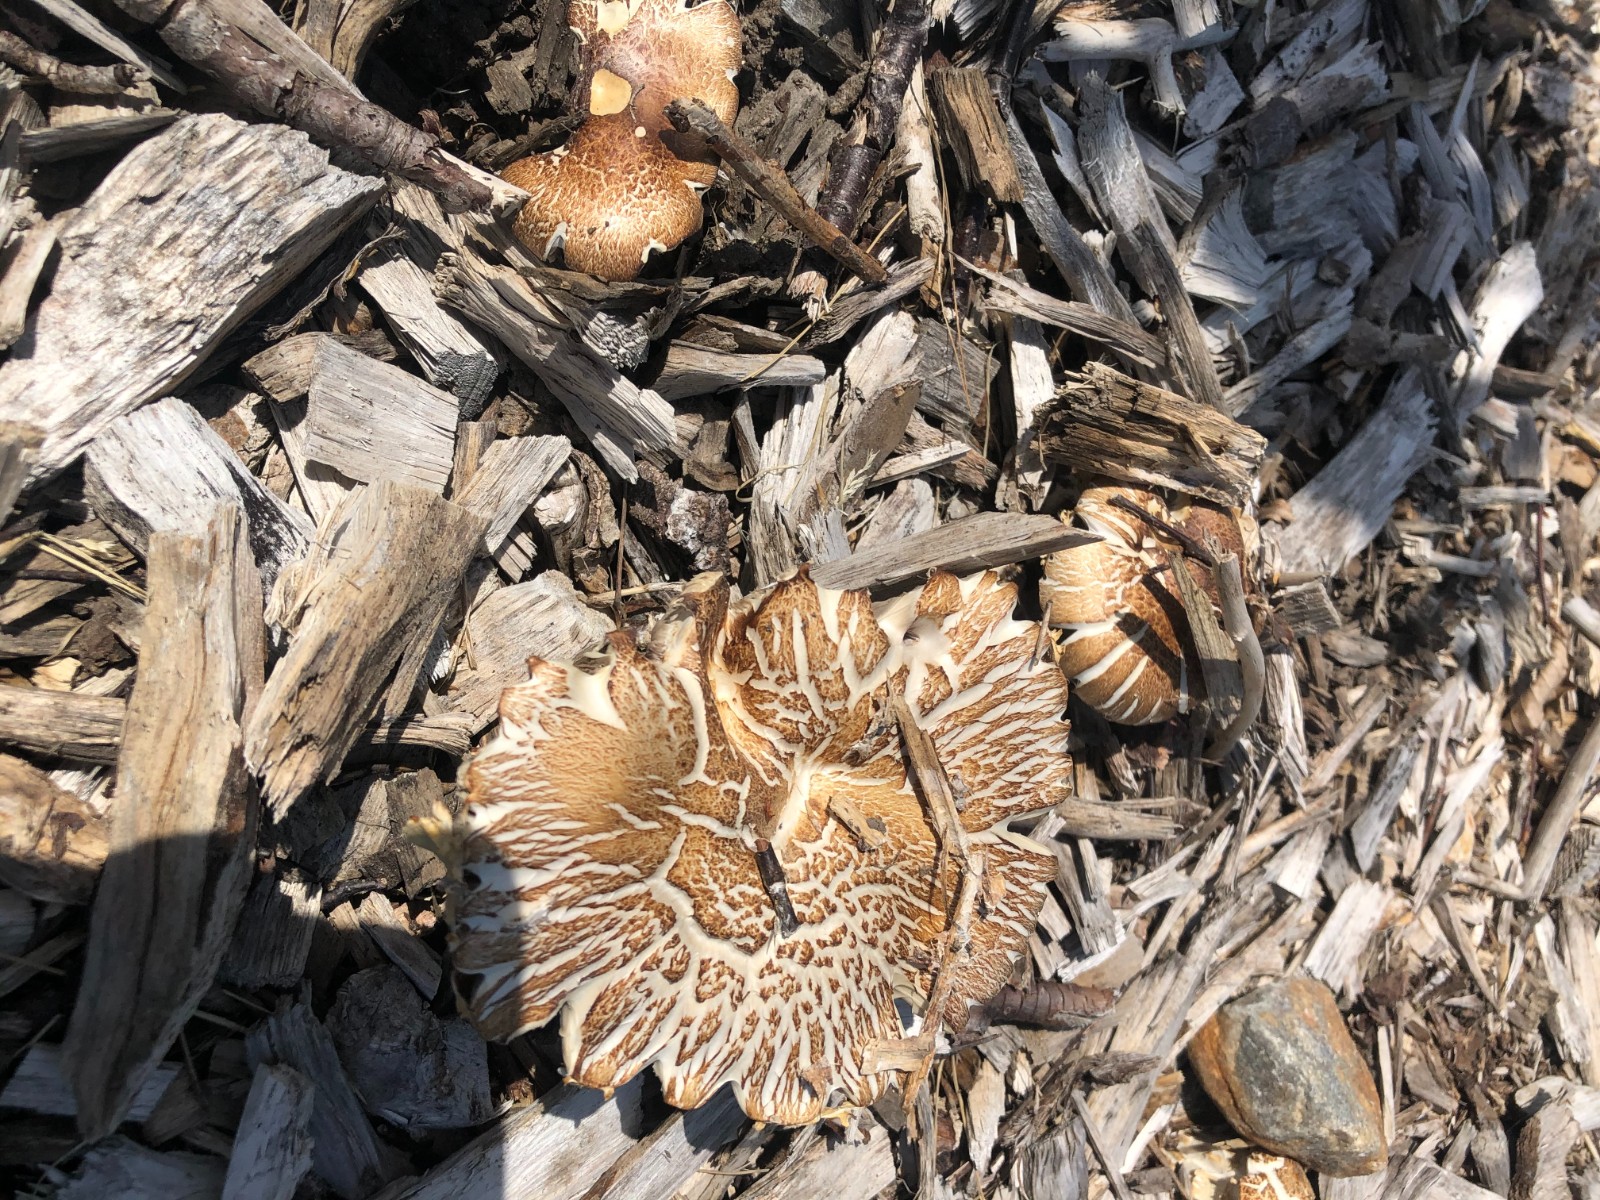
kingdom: Fungi
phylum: Basidiomycota
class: Agaricomycetes
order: Agaricales
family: Strophariaceae
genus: Stropharia
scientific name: Stropharia rugosoannulata
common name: rødbrun bredblad
